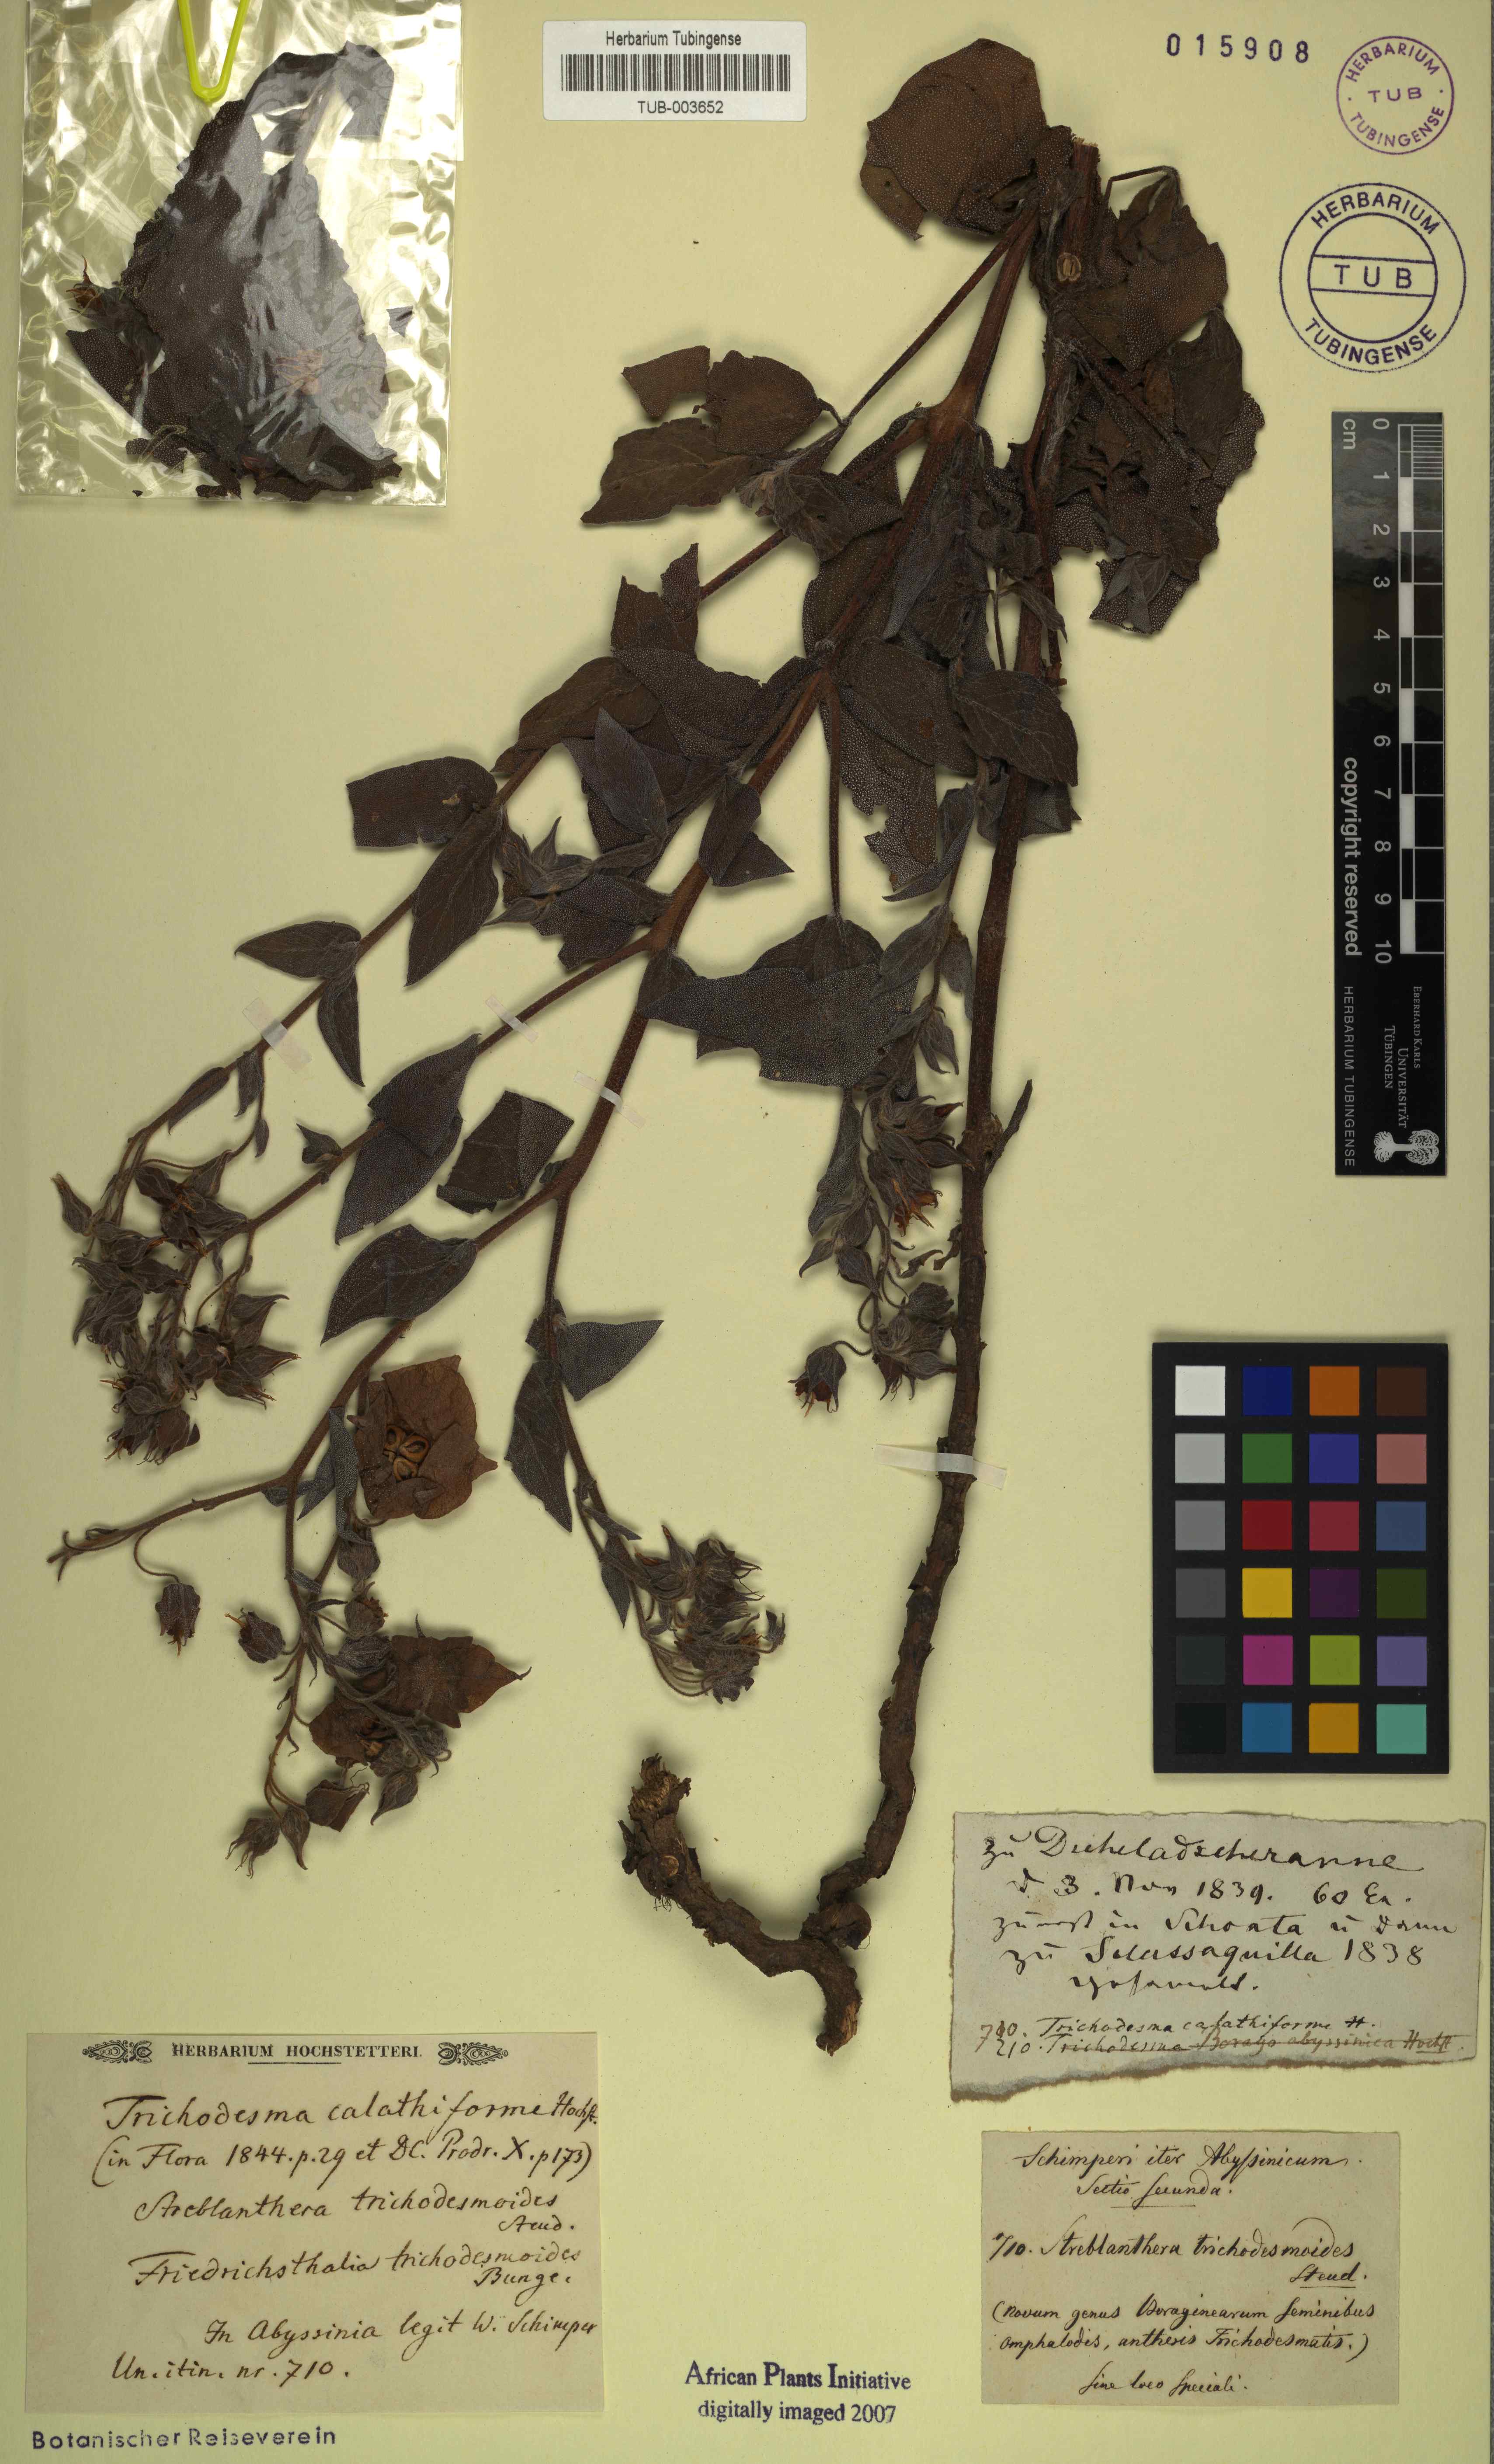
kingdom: Plantae
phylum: Tracheophyta
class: Magnoliopsida
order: Boraginales
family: Boraginaceae
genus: Trichodesma
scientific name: Trichodesma trichodesmoides
